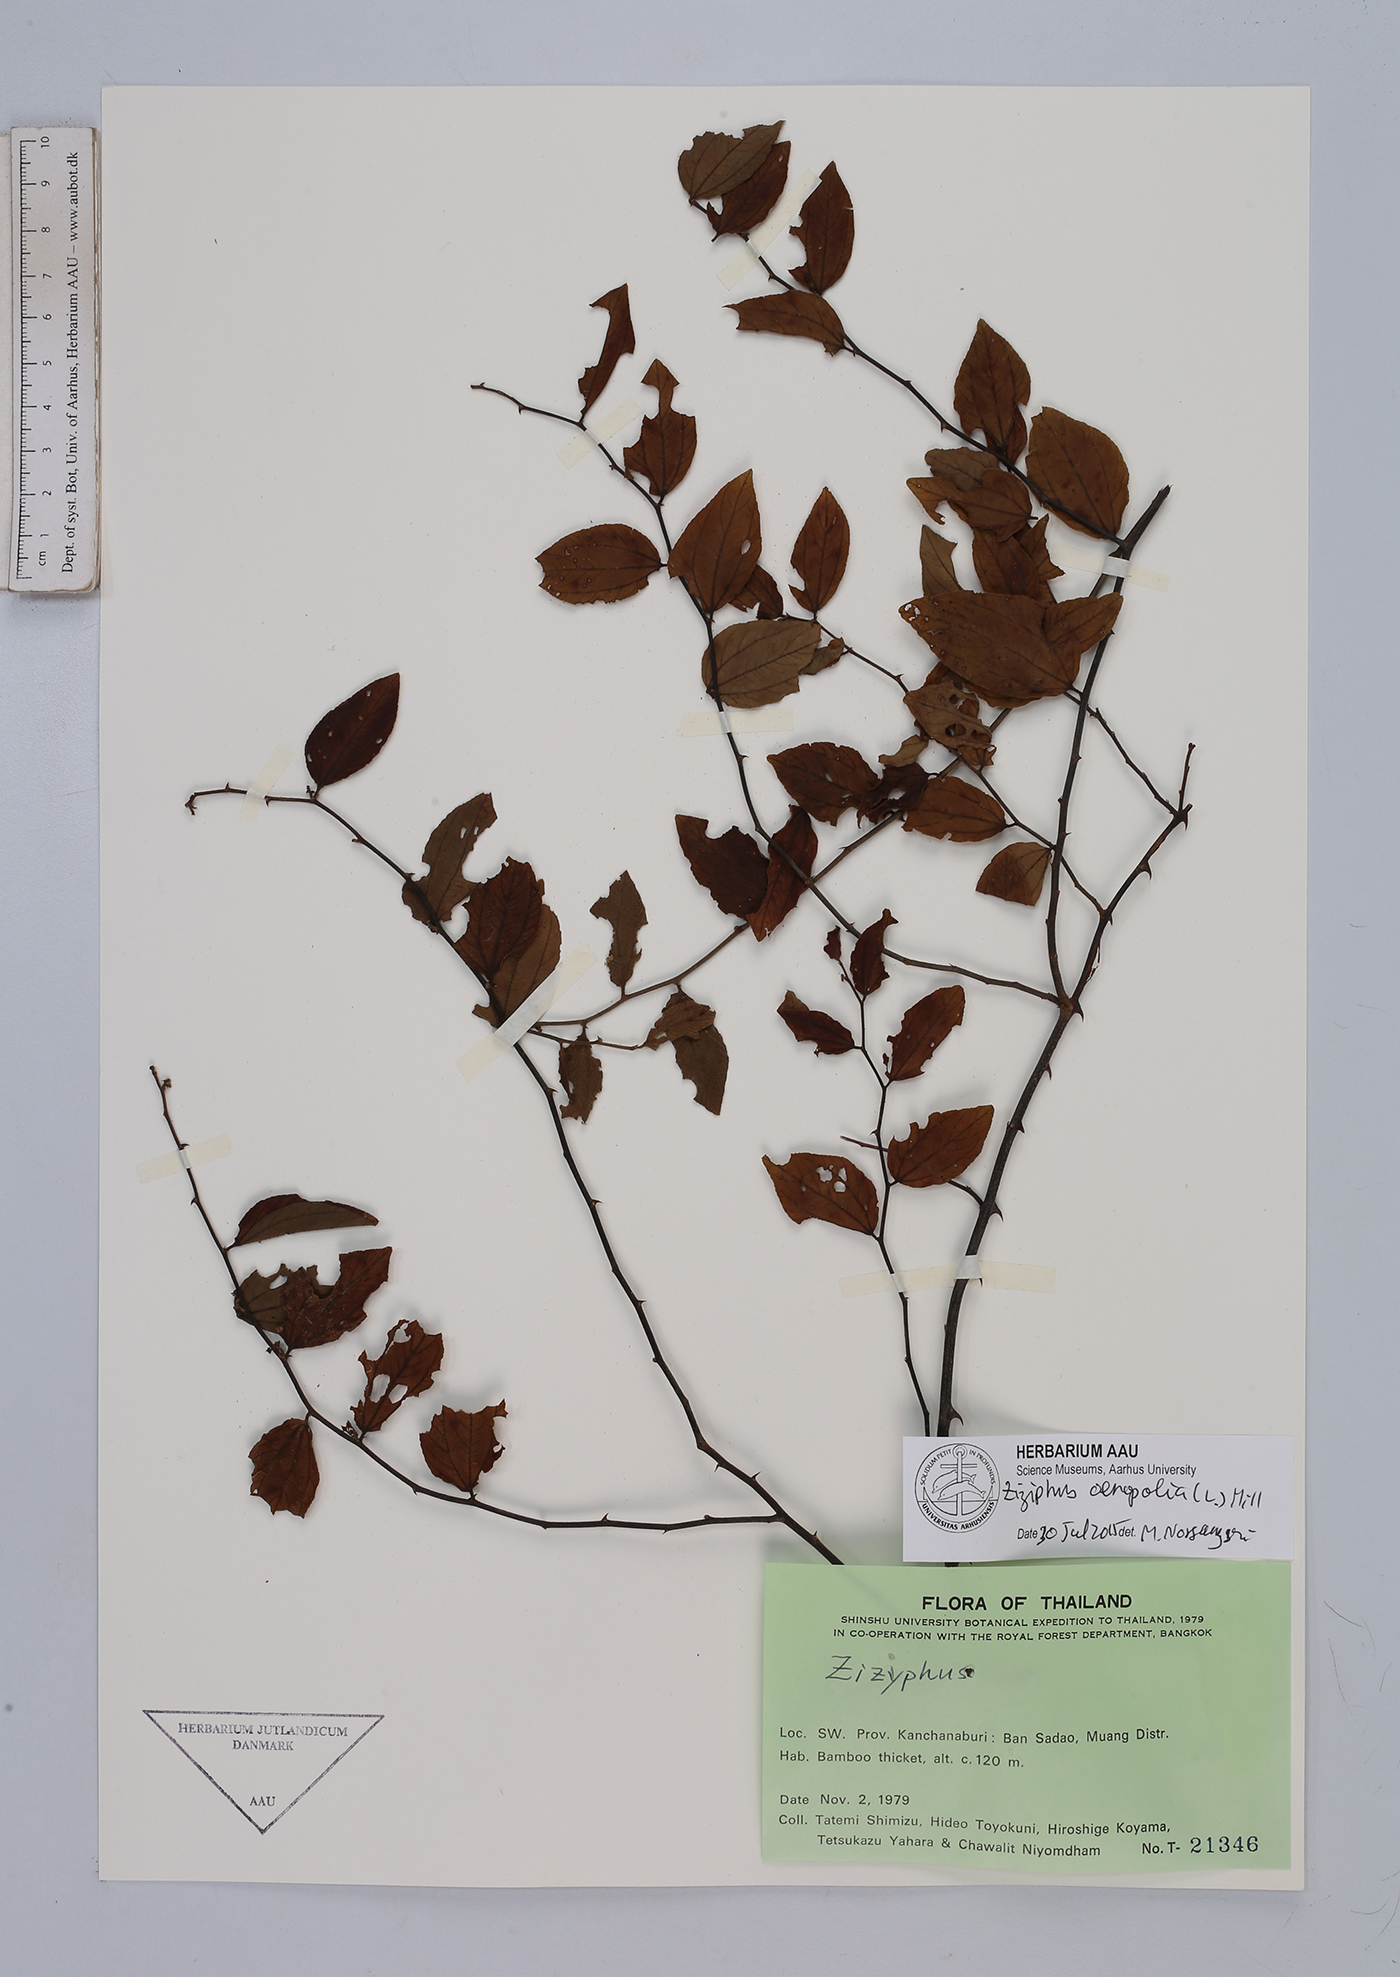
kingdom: Plantae
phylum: Tracheophyta
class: Magnoliopsida
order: Rosales
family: Rhamnaceae
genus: Ziziphus
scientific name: Ziziphus oenopolia
